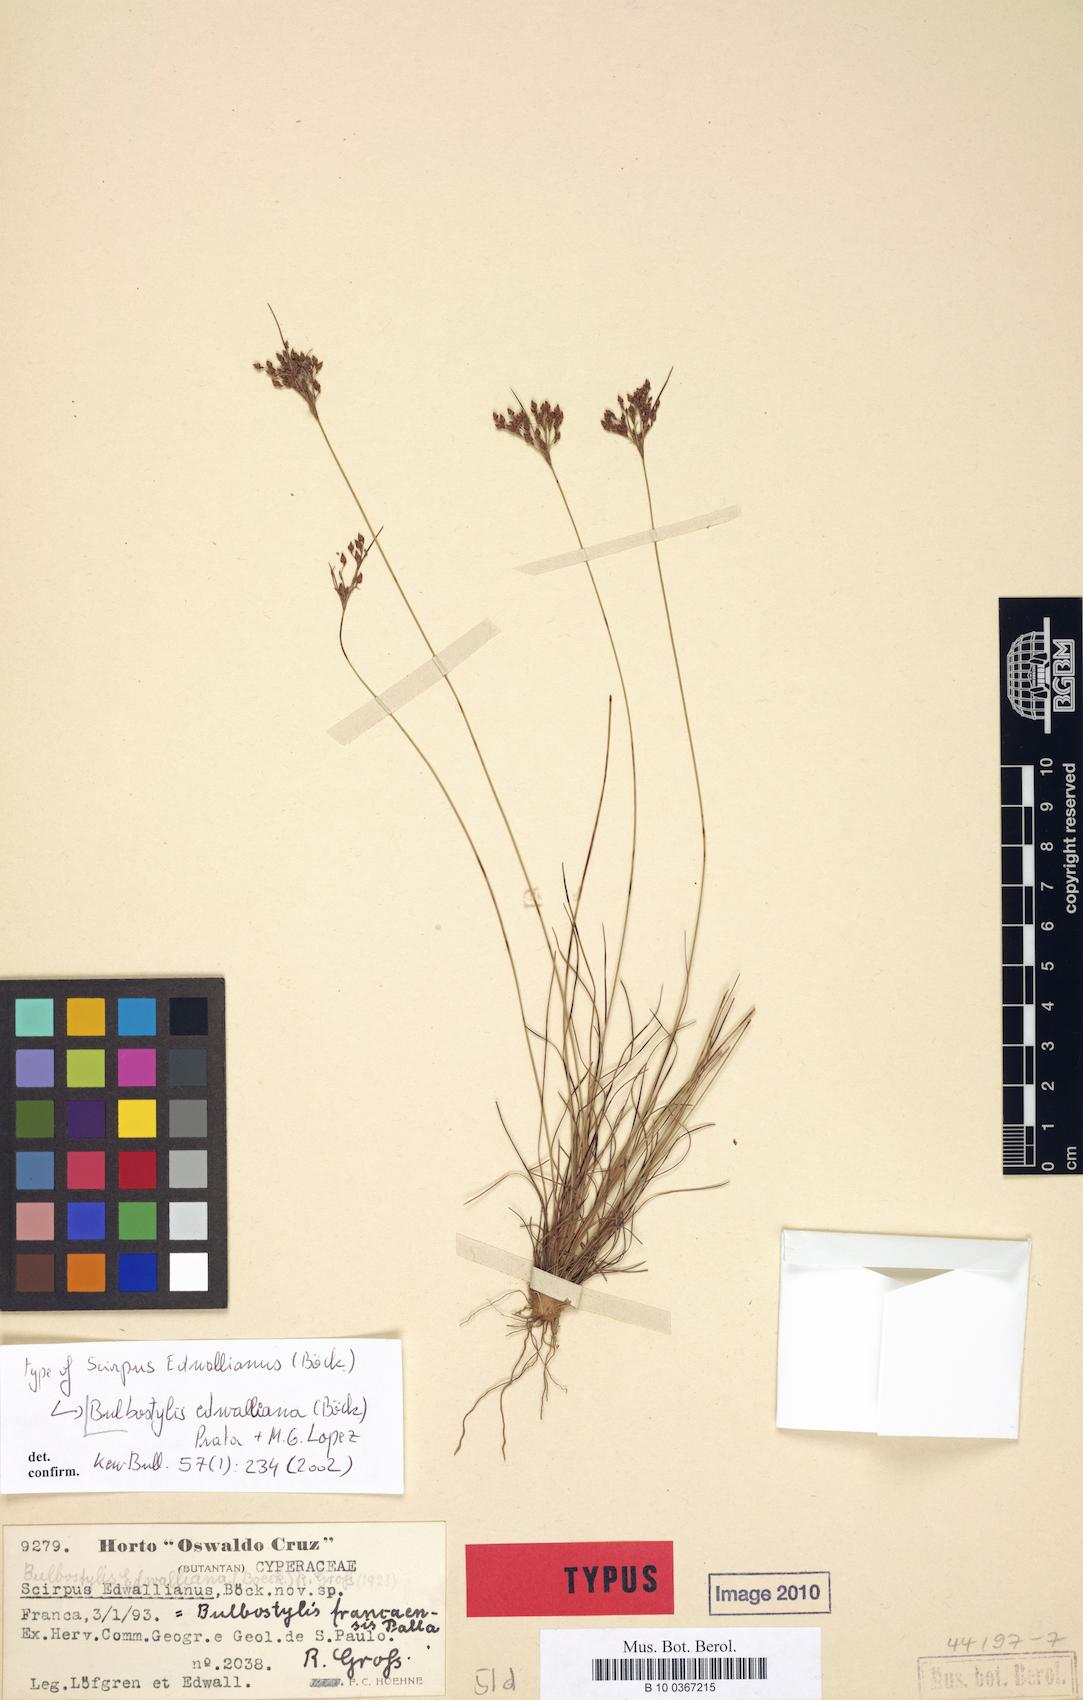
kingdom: Plantae
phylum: Tracheophyta
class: Liliopsida
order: Poales
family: Cyperaceae
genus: Bulbostylis
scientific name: Bulbostylis edwalliana
